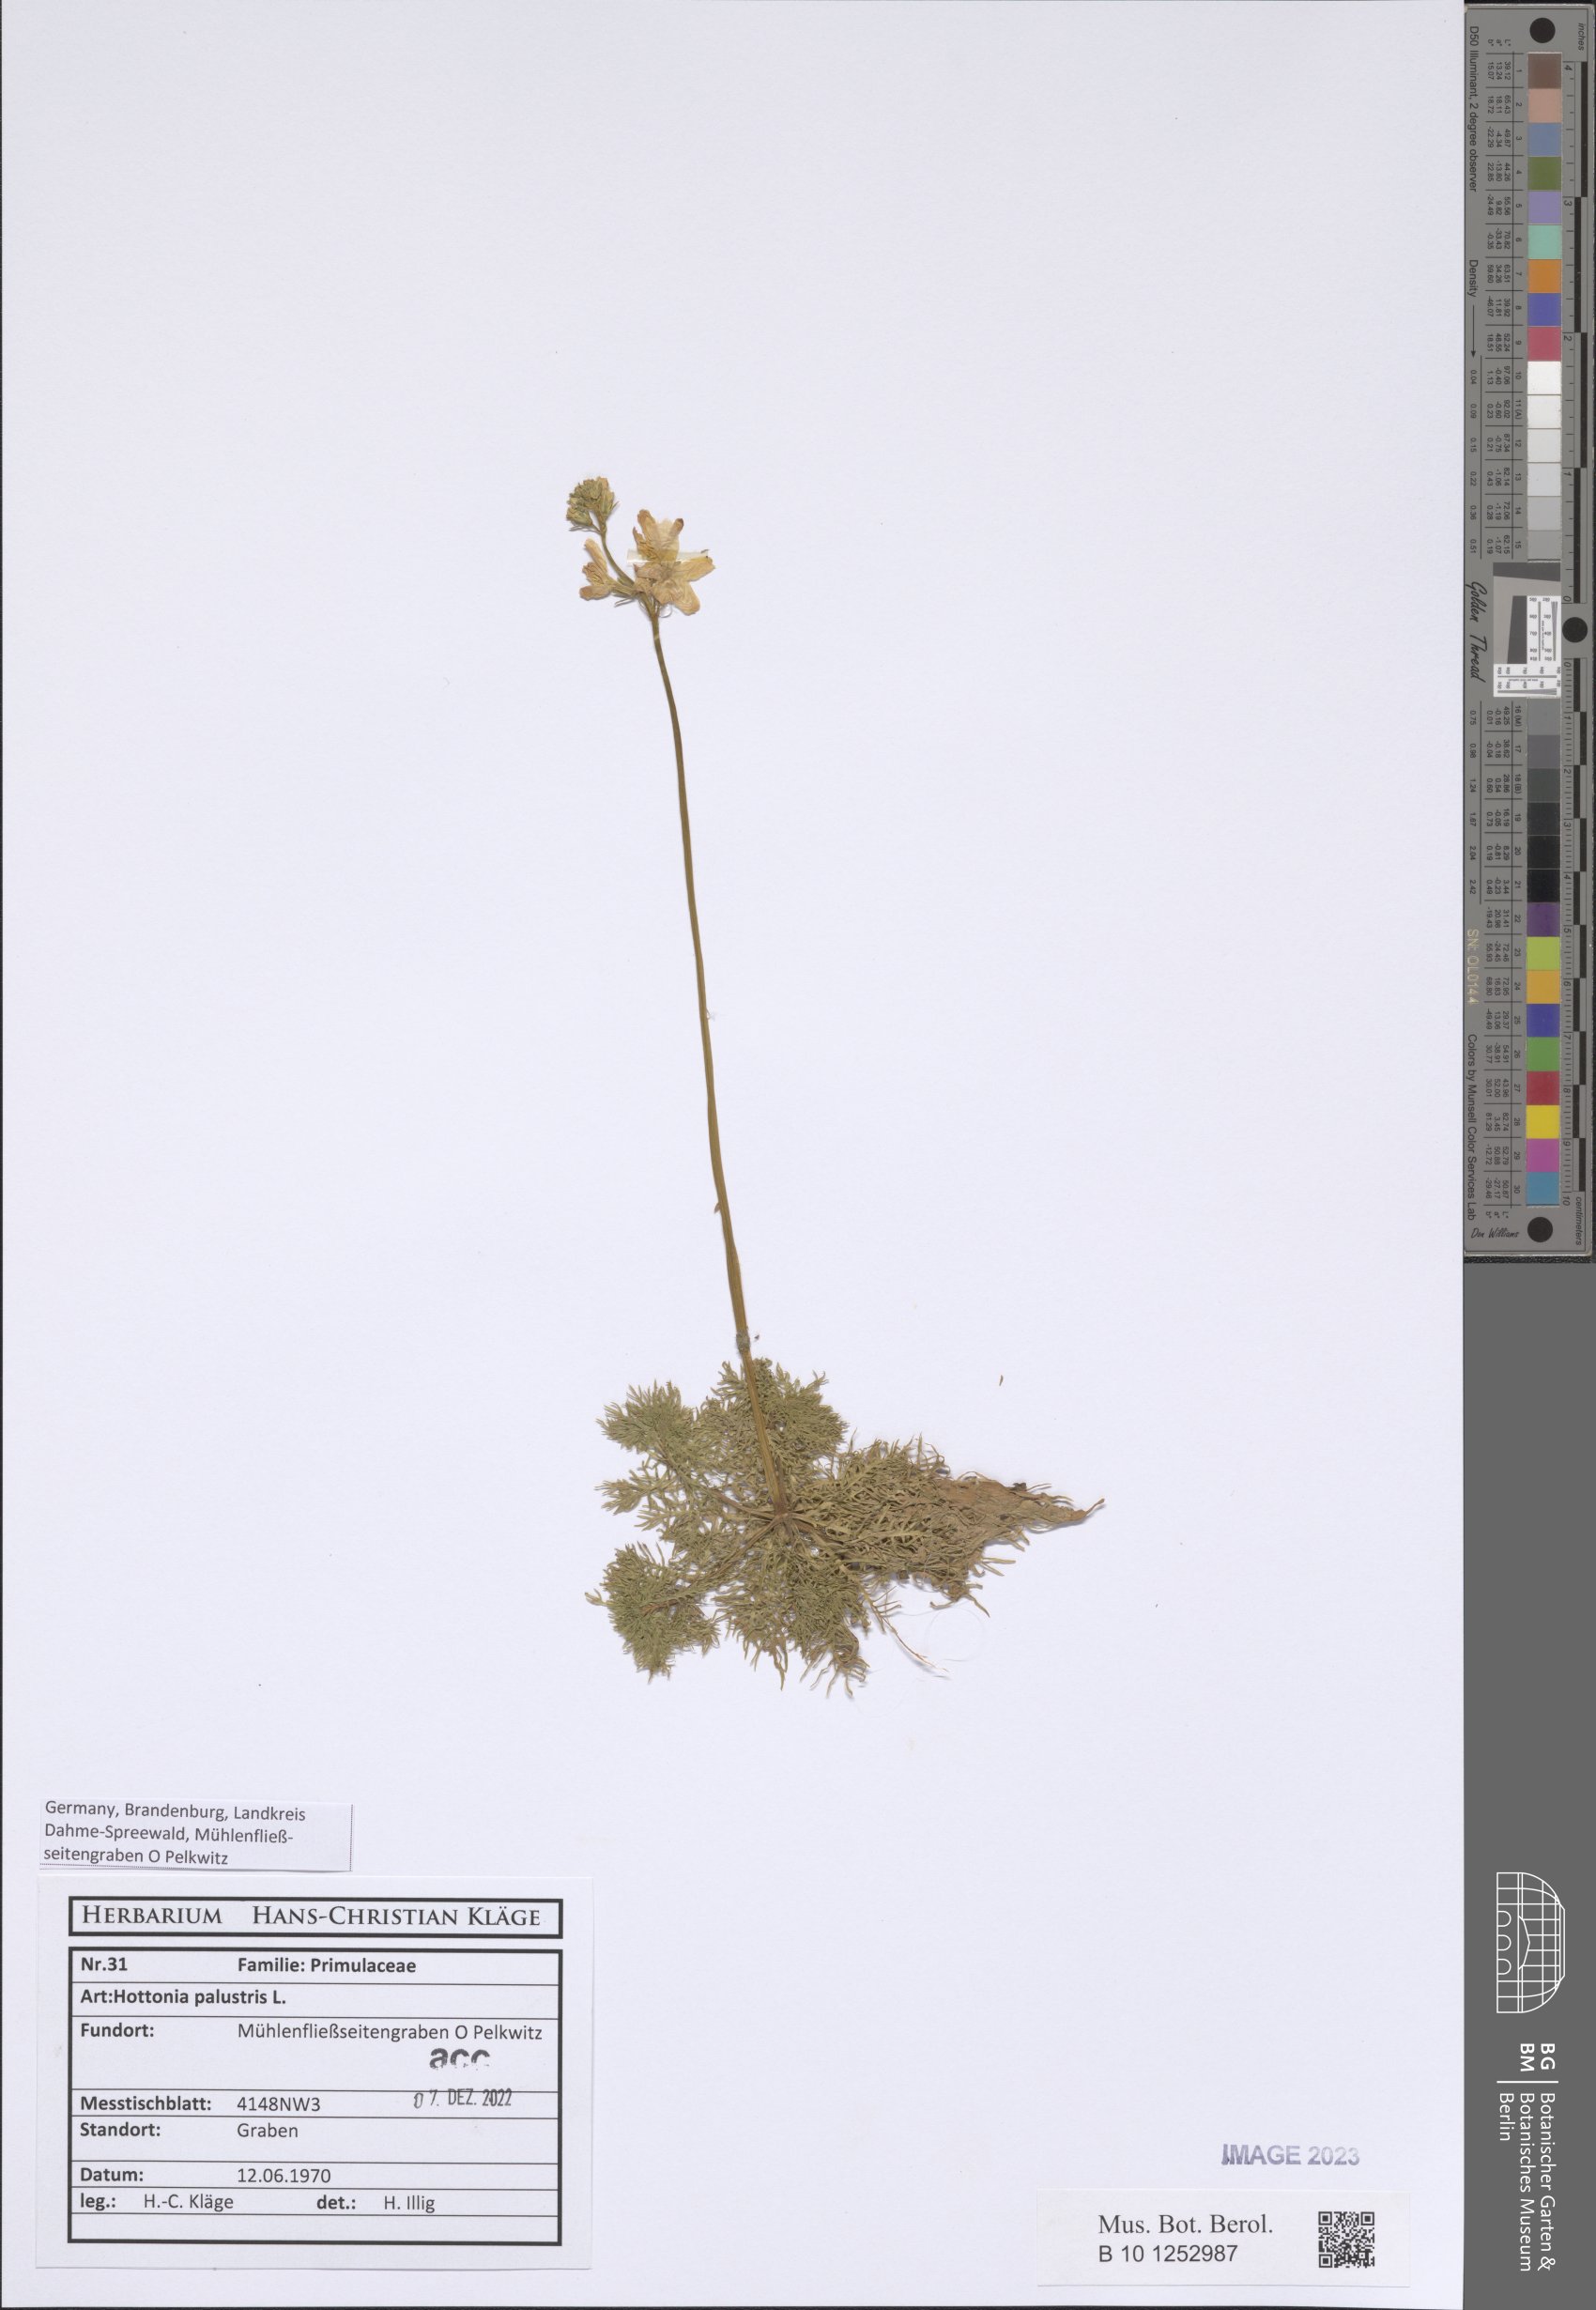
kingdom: Plantae
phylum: Tracheophyta
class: Magnoliopsida
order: Ericales
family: Primulaceae
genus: Hottonia
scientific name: Hottonia palustris
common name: Water-violet
